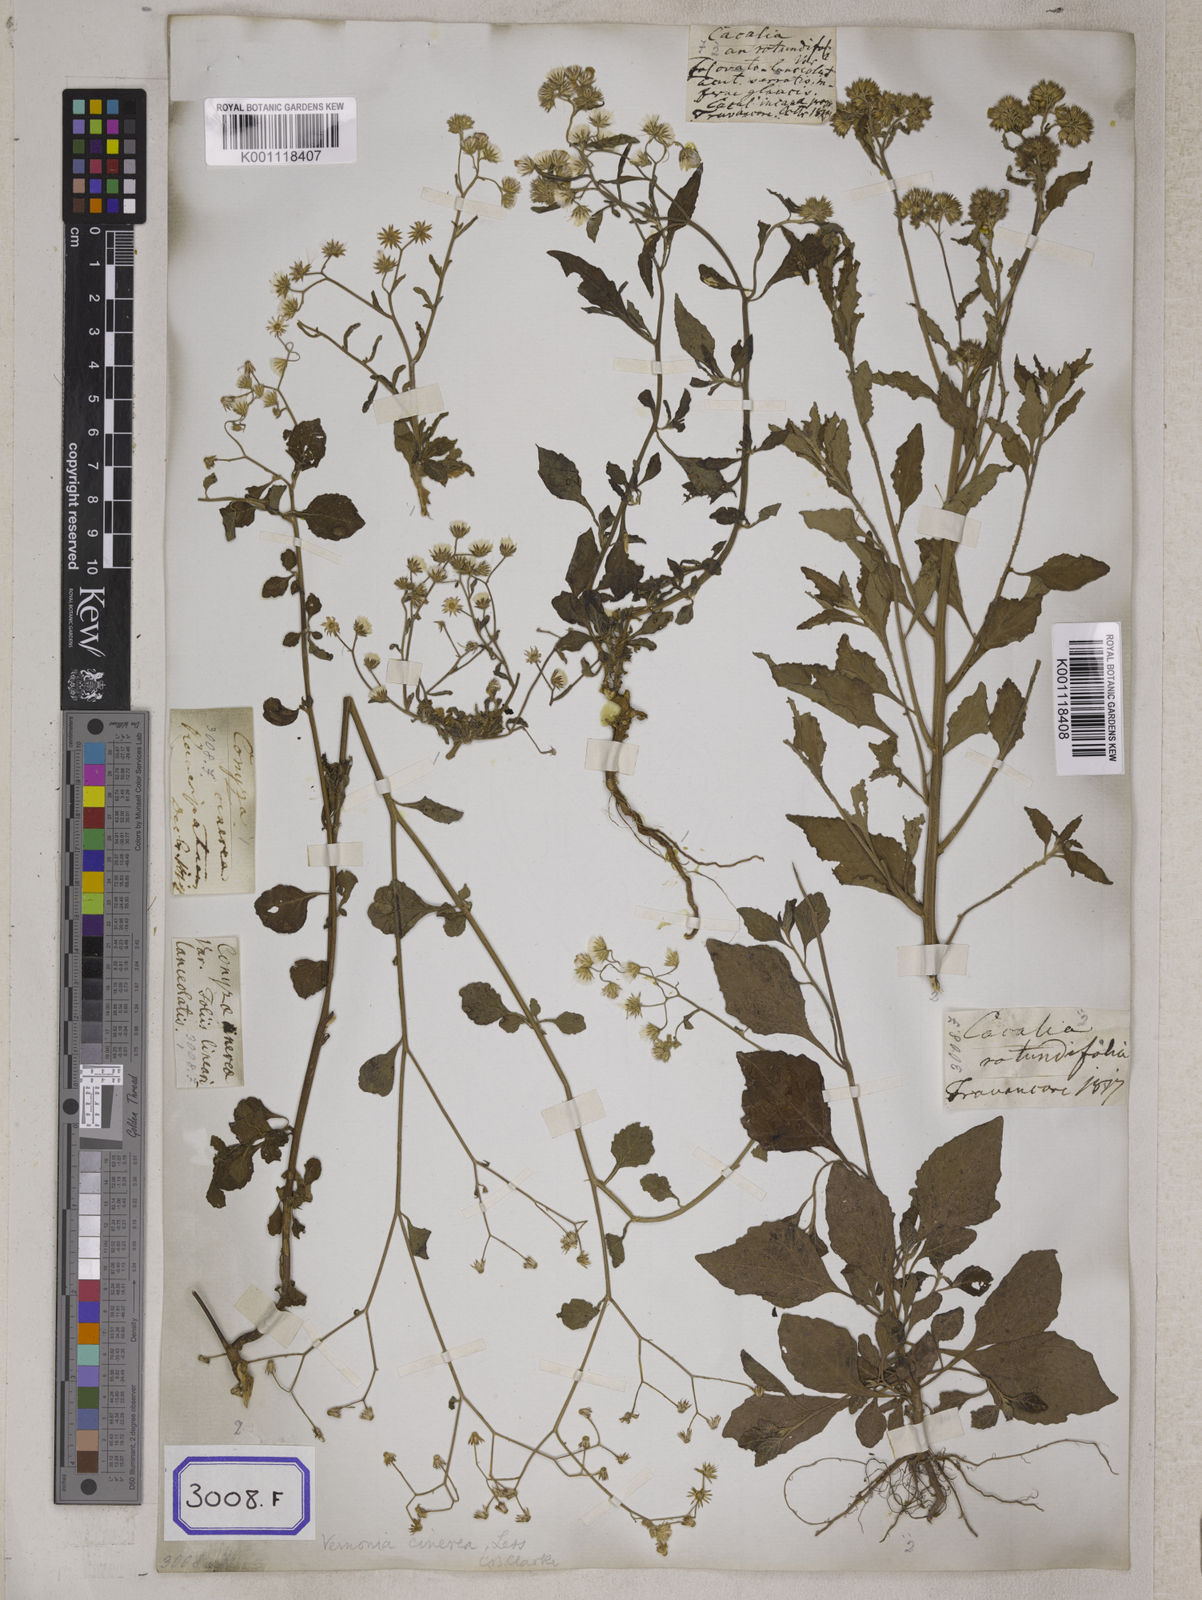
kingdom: Plantae
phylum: Tracheophyta
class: Magnoliopsida
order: Asterales
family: Asteraceae
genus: Cyanthillium
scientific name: Cyanthillium cinereum
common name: Little ironweed
